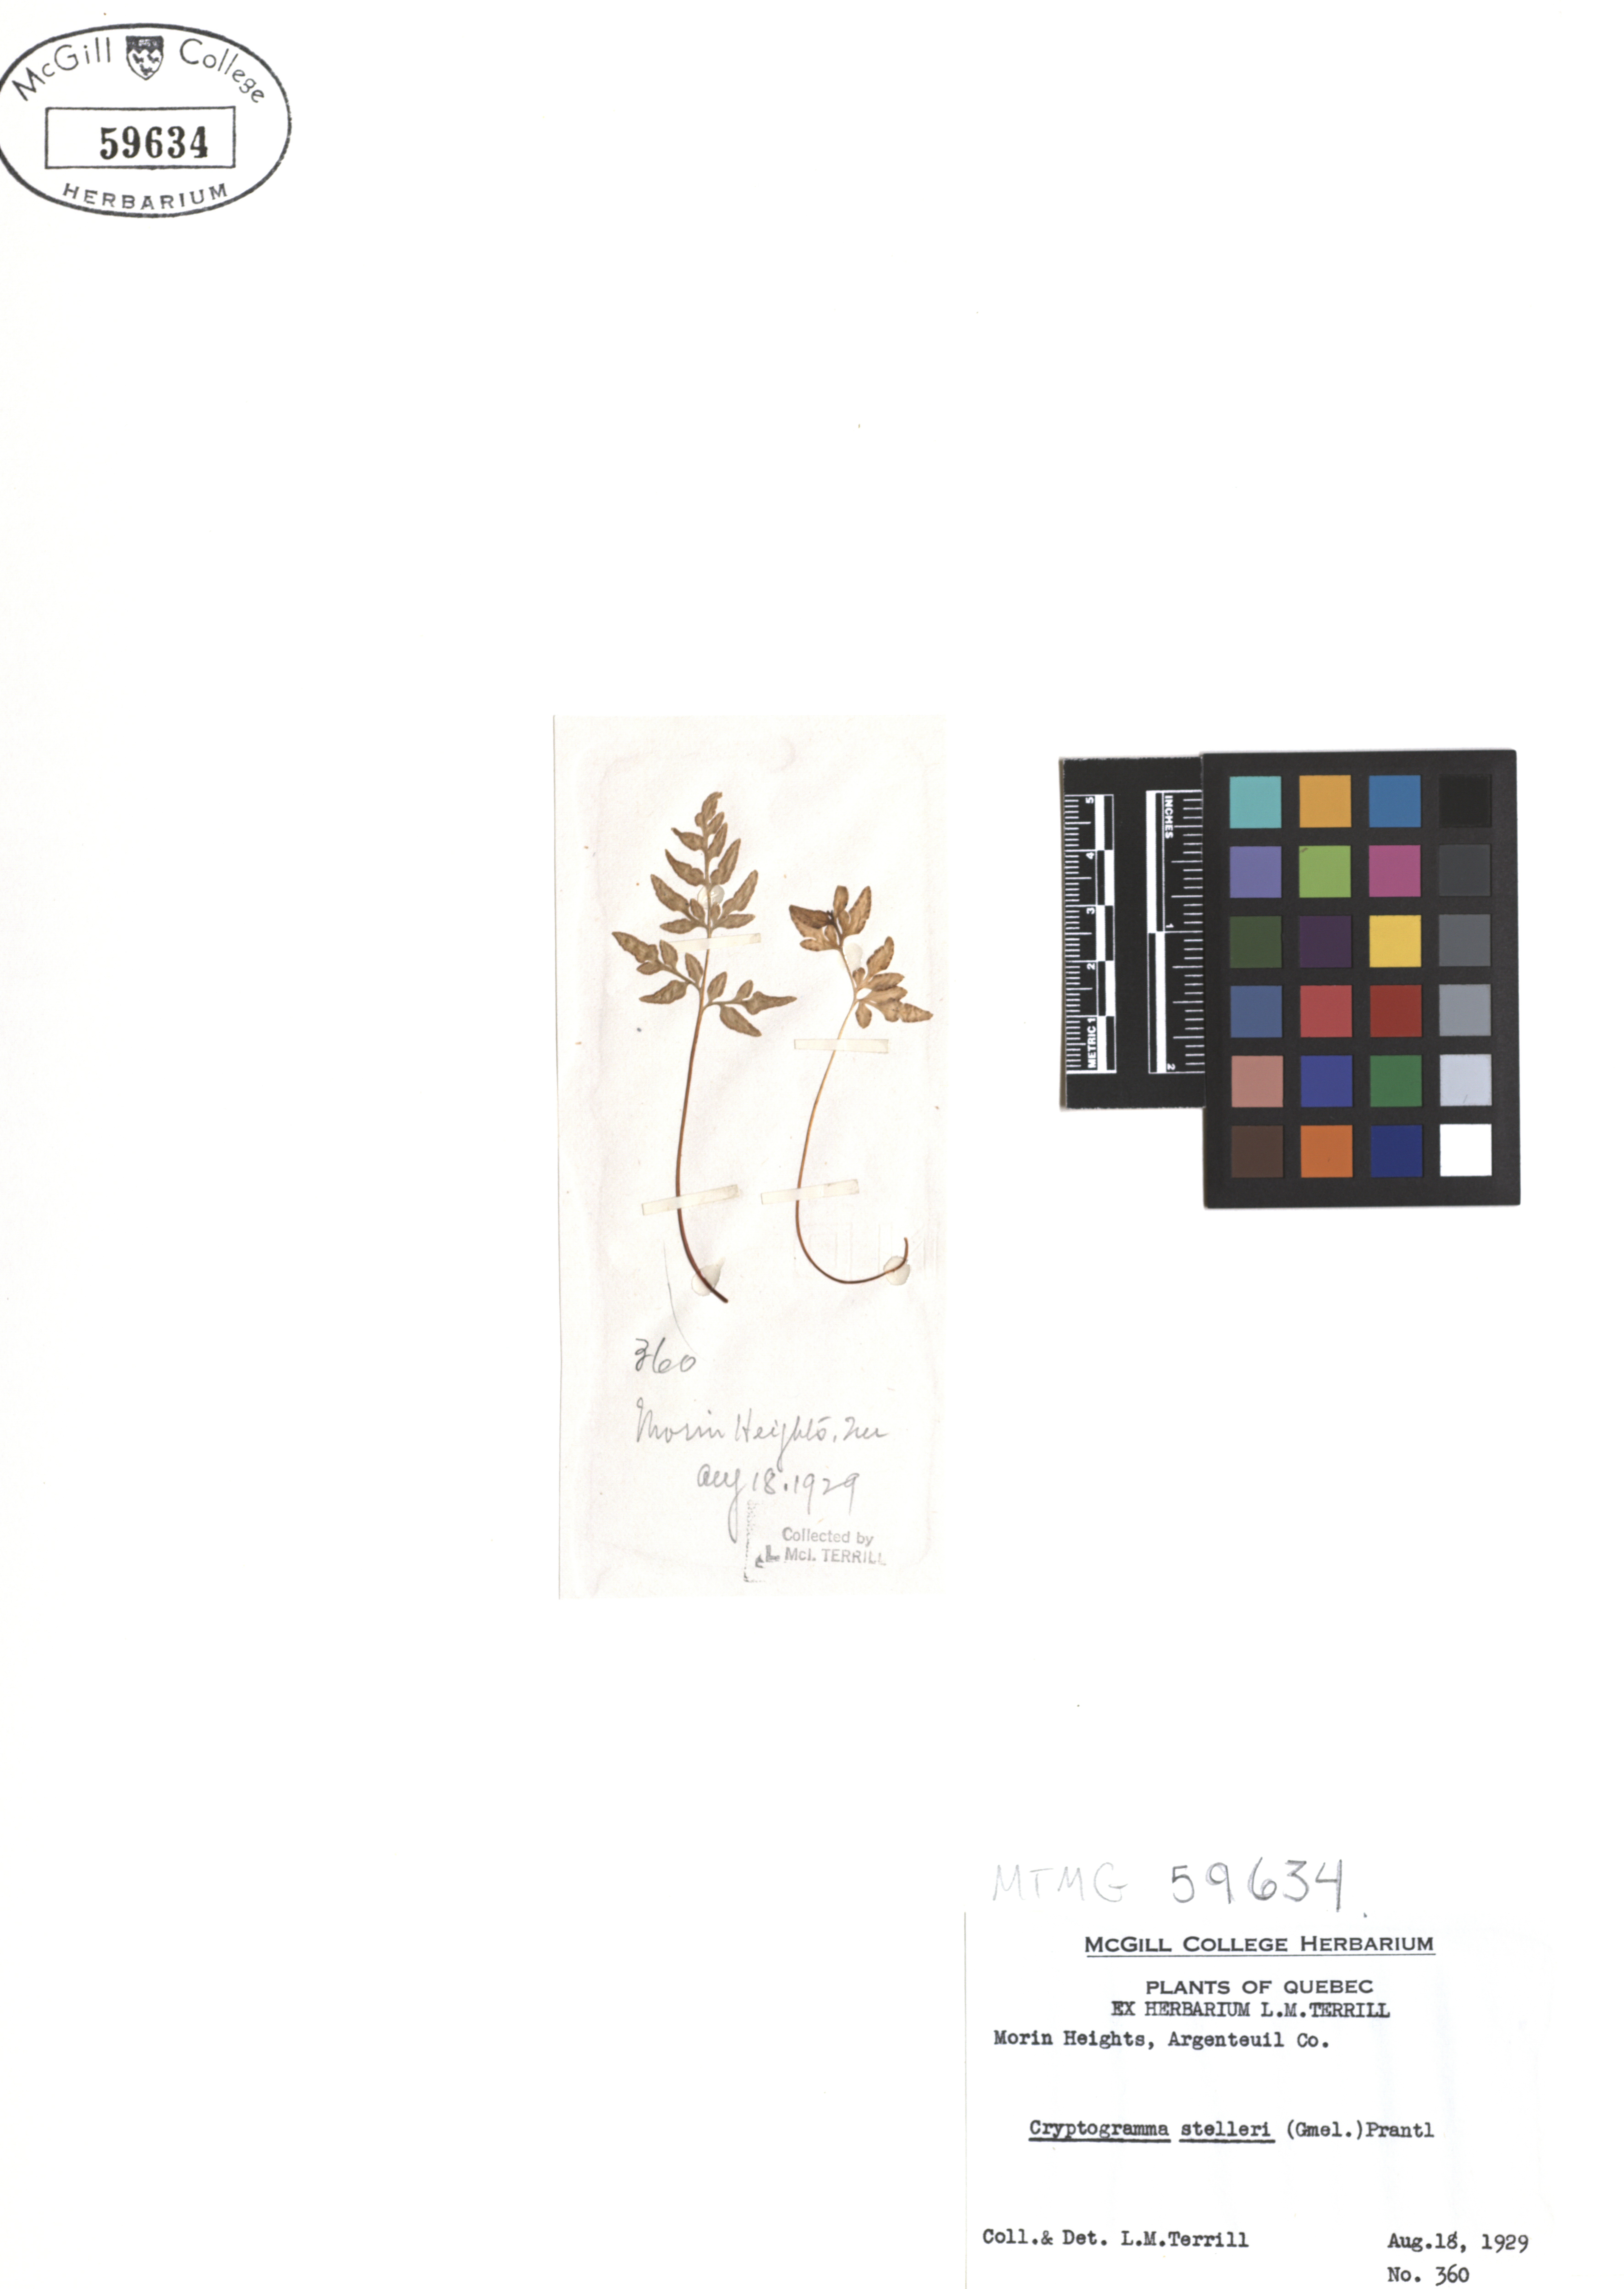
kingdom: Plantae
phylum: Tracheophyta
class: Polypodiopsida
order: Polypodiales
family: Pteridaceae
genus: Cryptogramma
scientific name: Cryptogramma stelleri
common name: Cliff-brake
